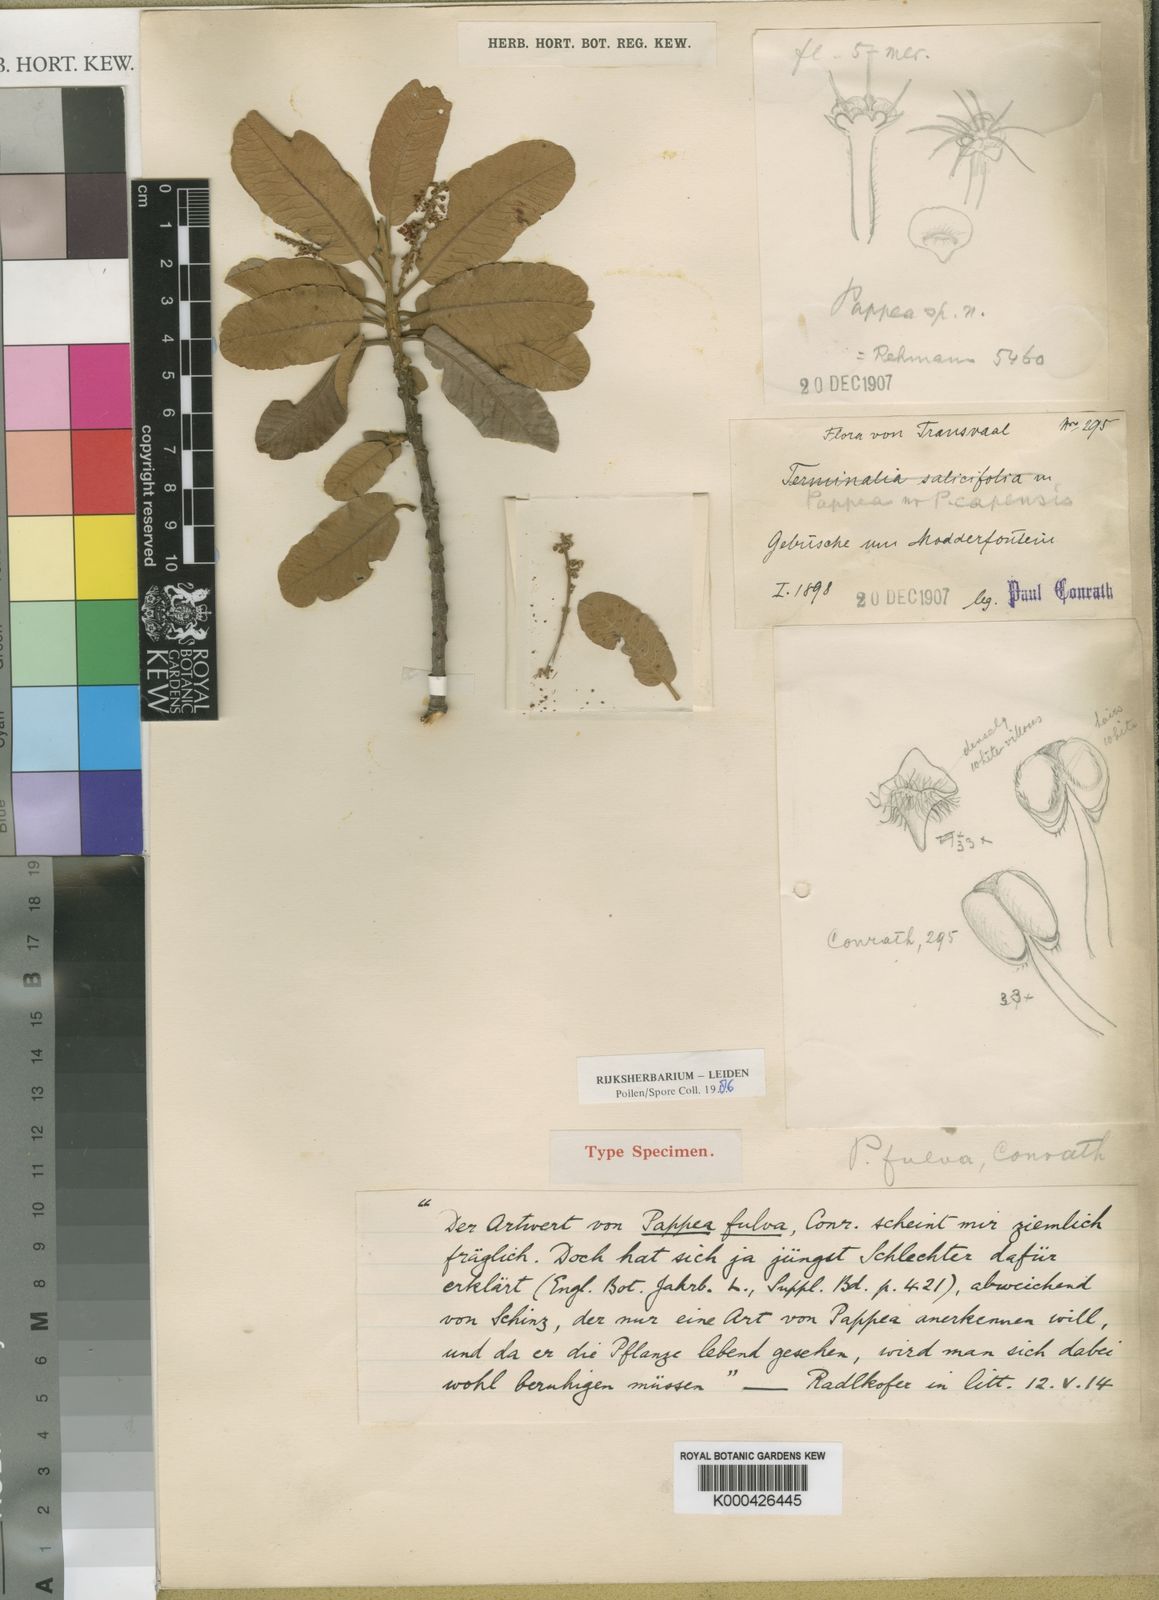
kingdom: Plantae
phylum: Tracheophyta
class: Magnoliopsida
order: Sapindales
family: Sapindaceae
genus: Pappea
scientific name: Pappea capensis
